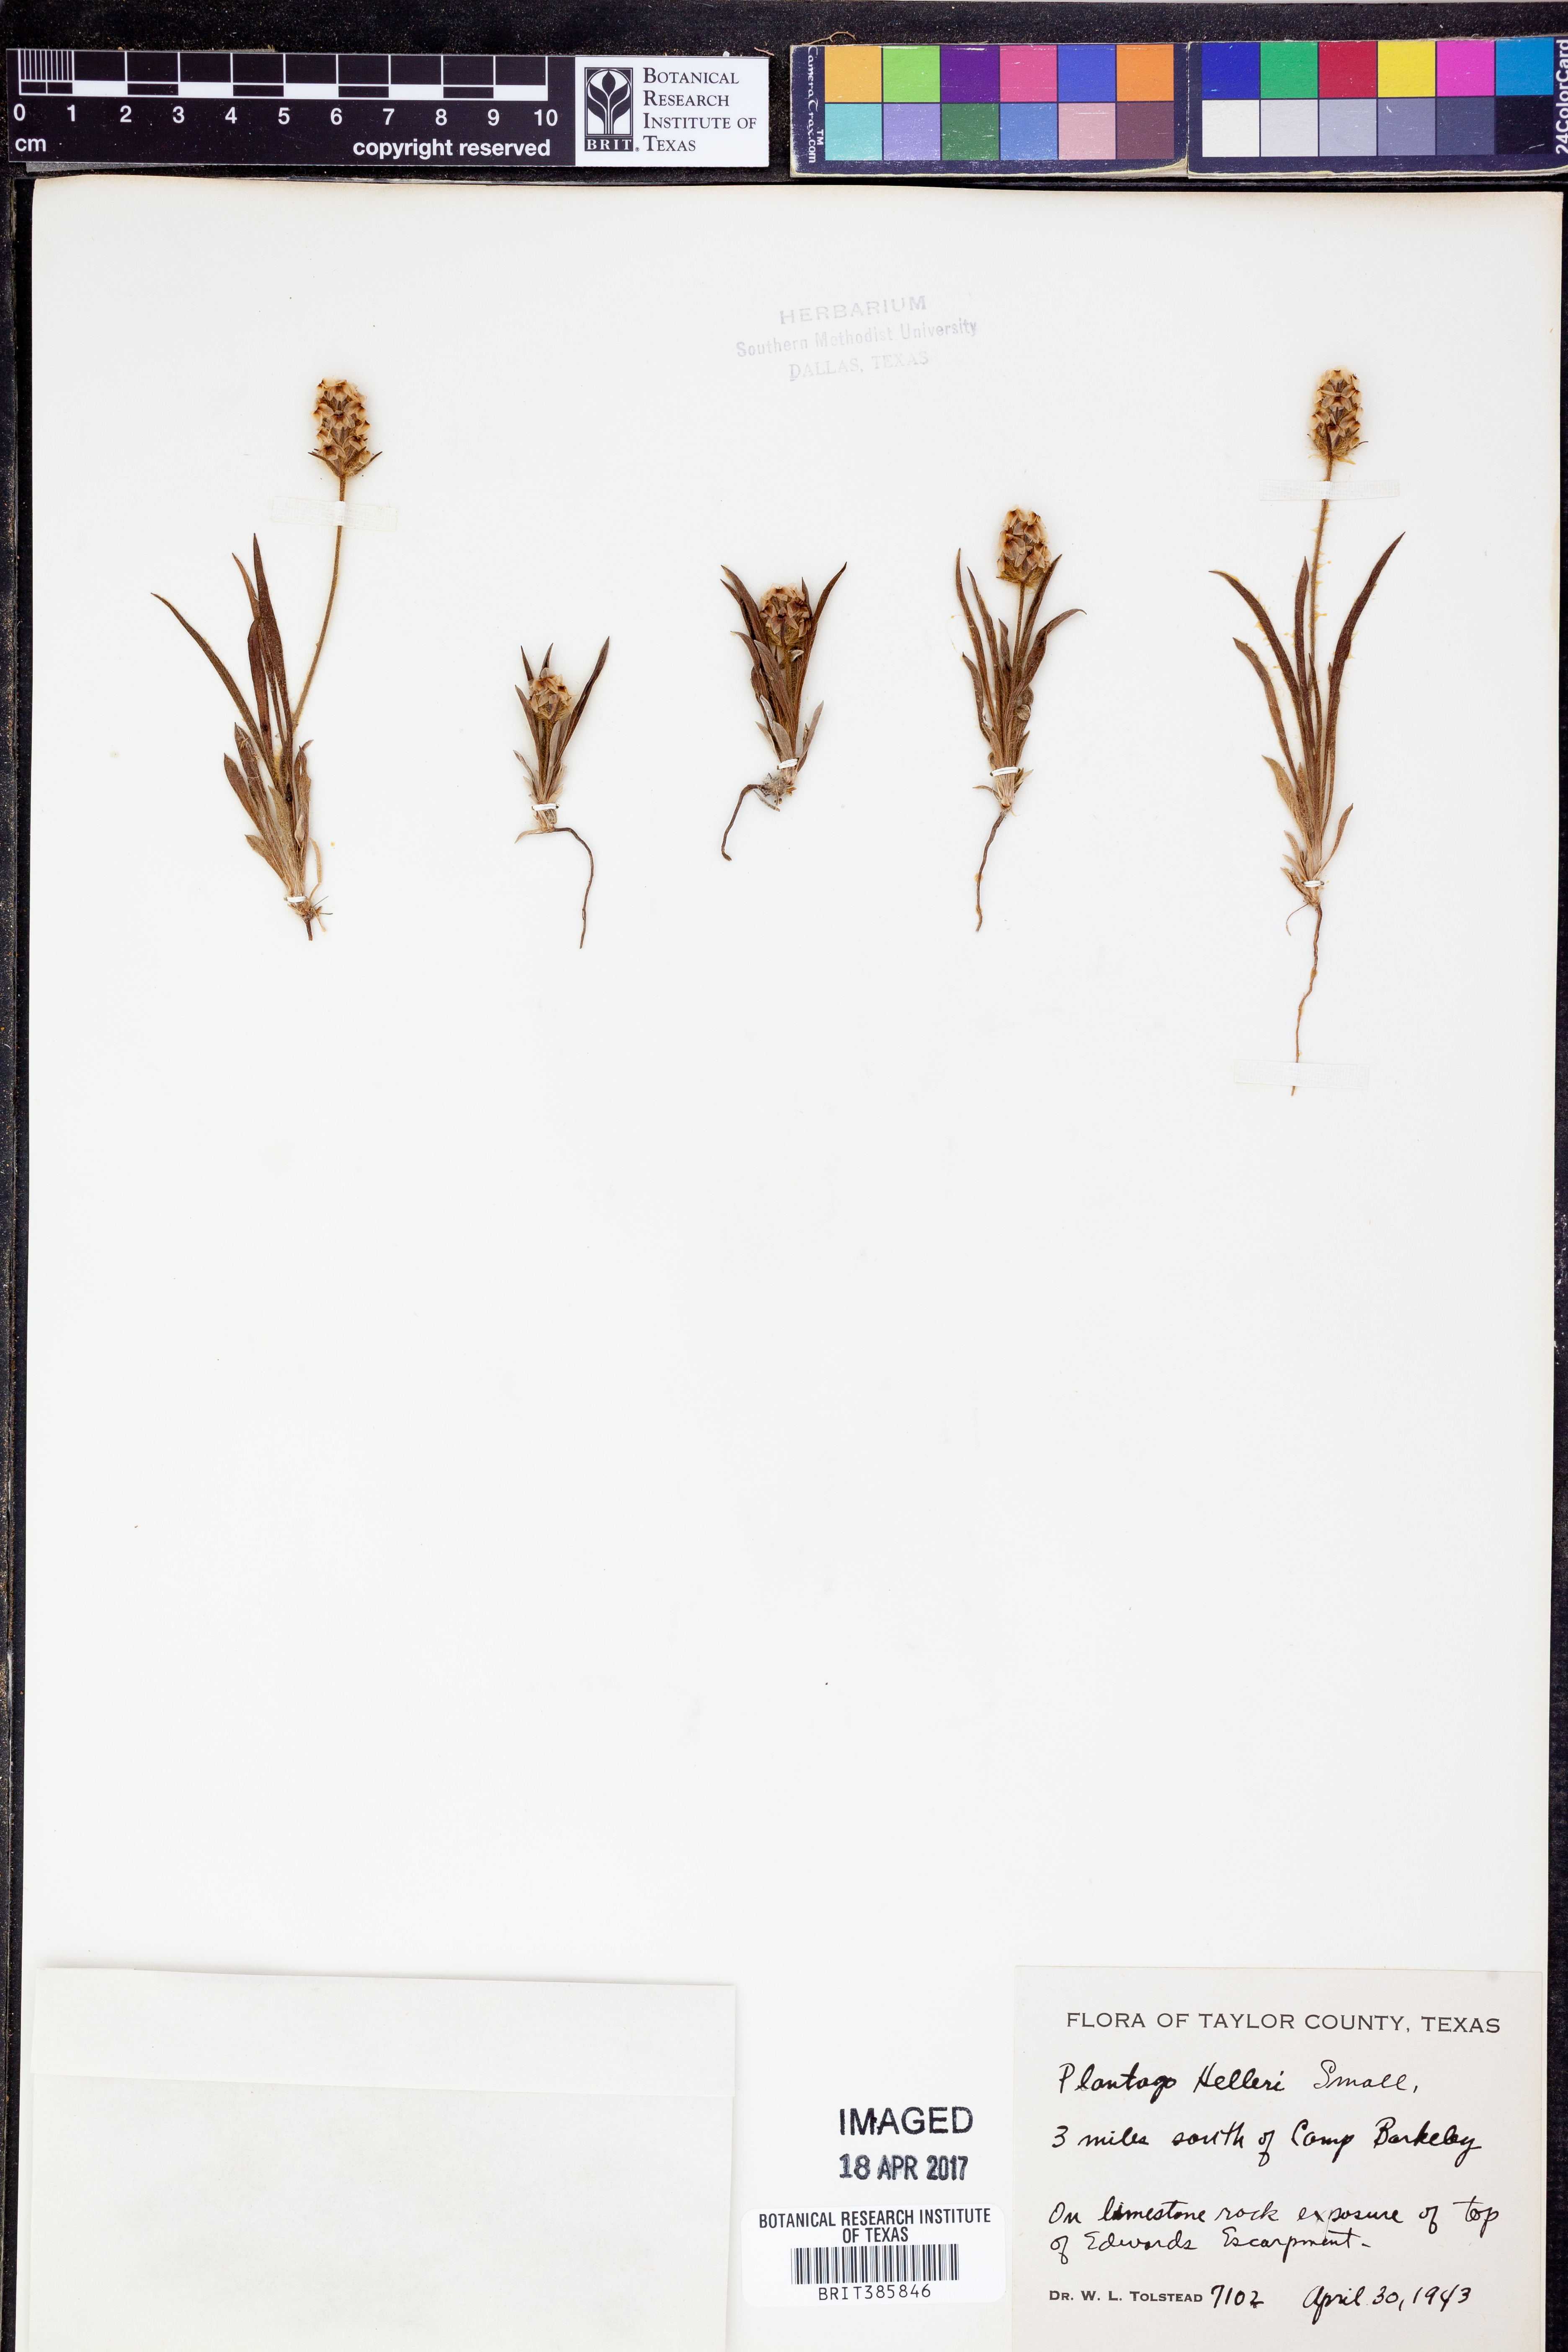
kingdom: Plantae
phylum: Tracheophyta
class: Magnoliopsida
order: Lamiales
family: Plantaginaceae
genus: Plantago
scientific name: Plantago helleri
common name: Heller's plantain
